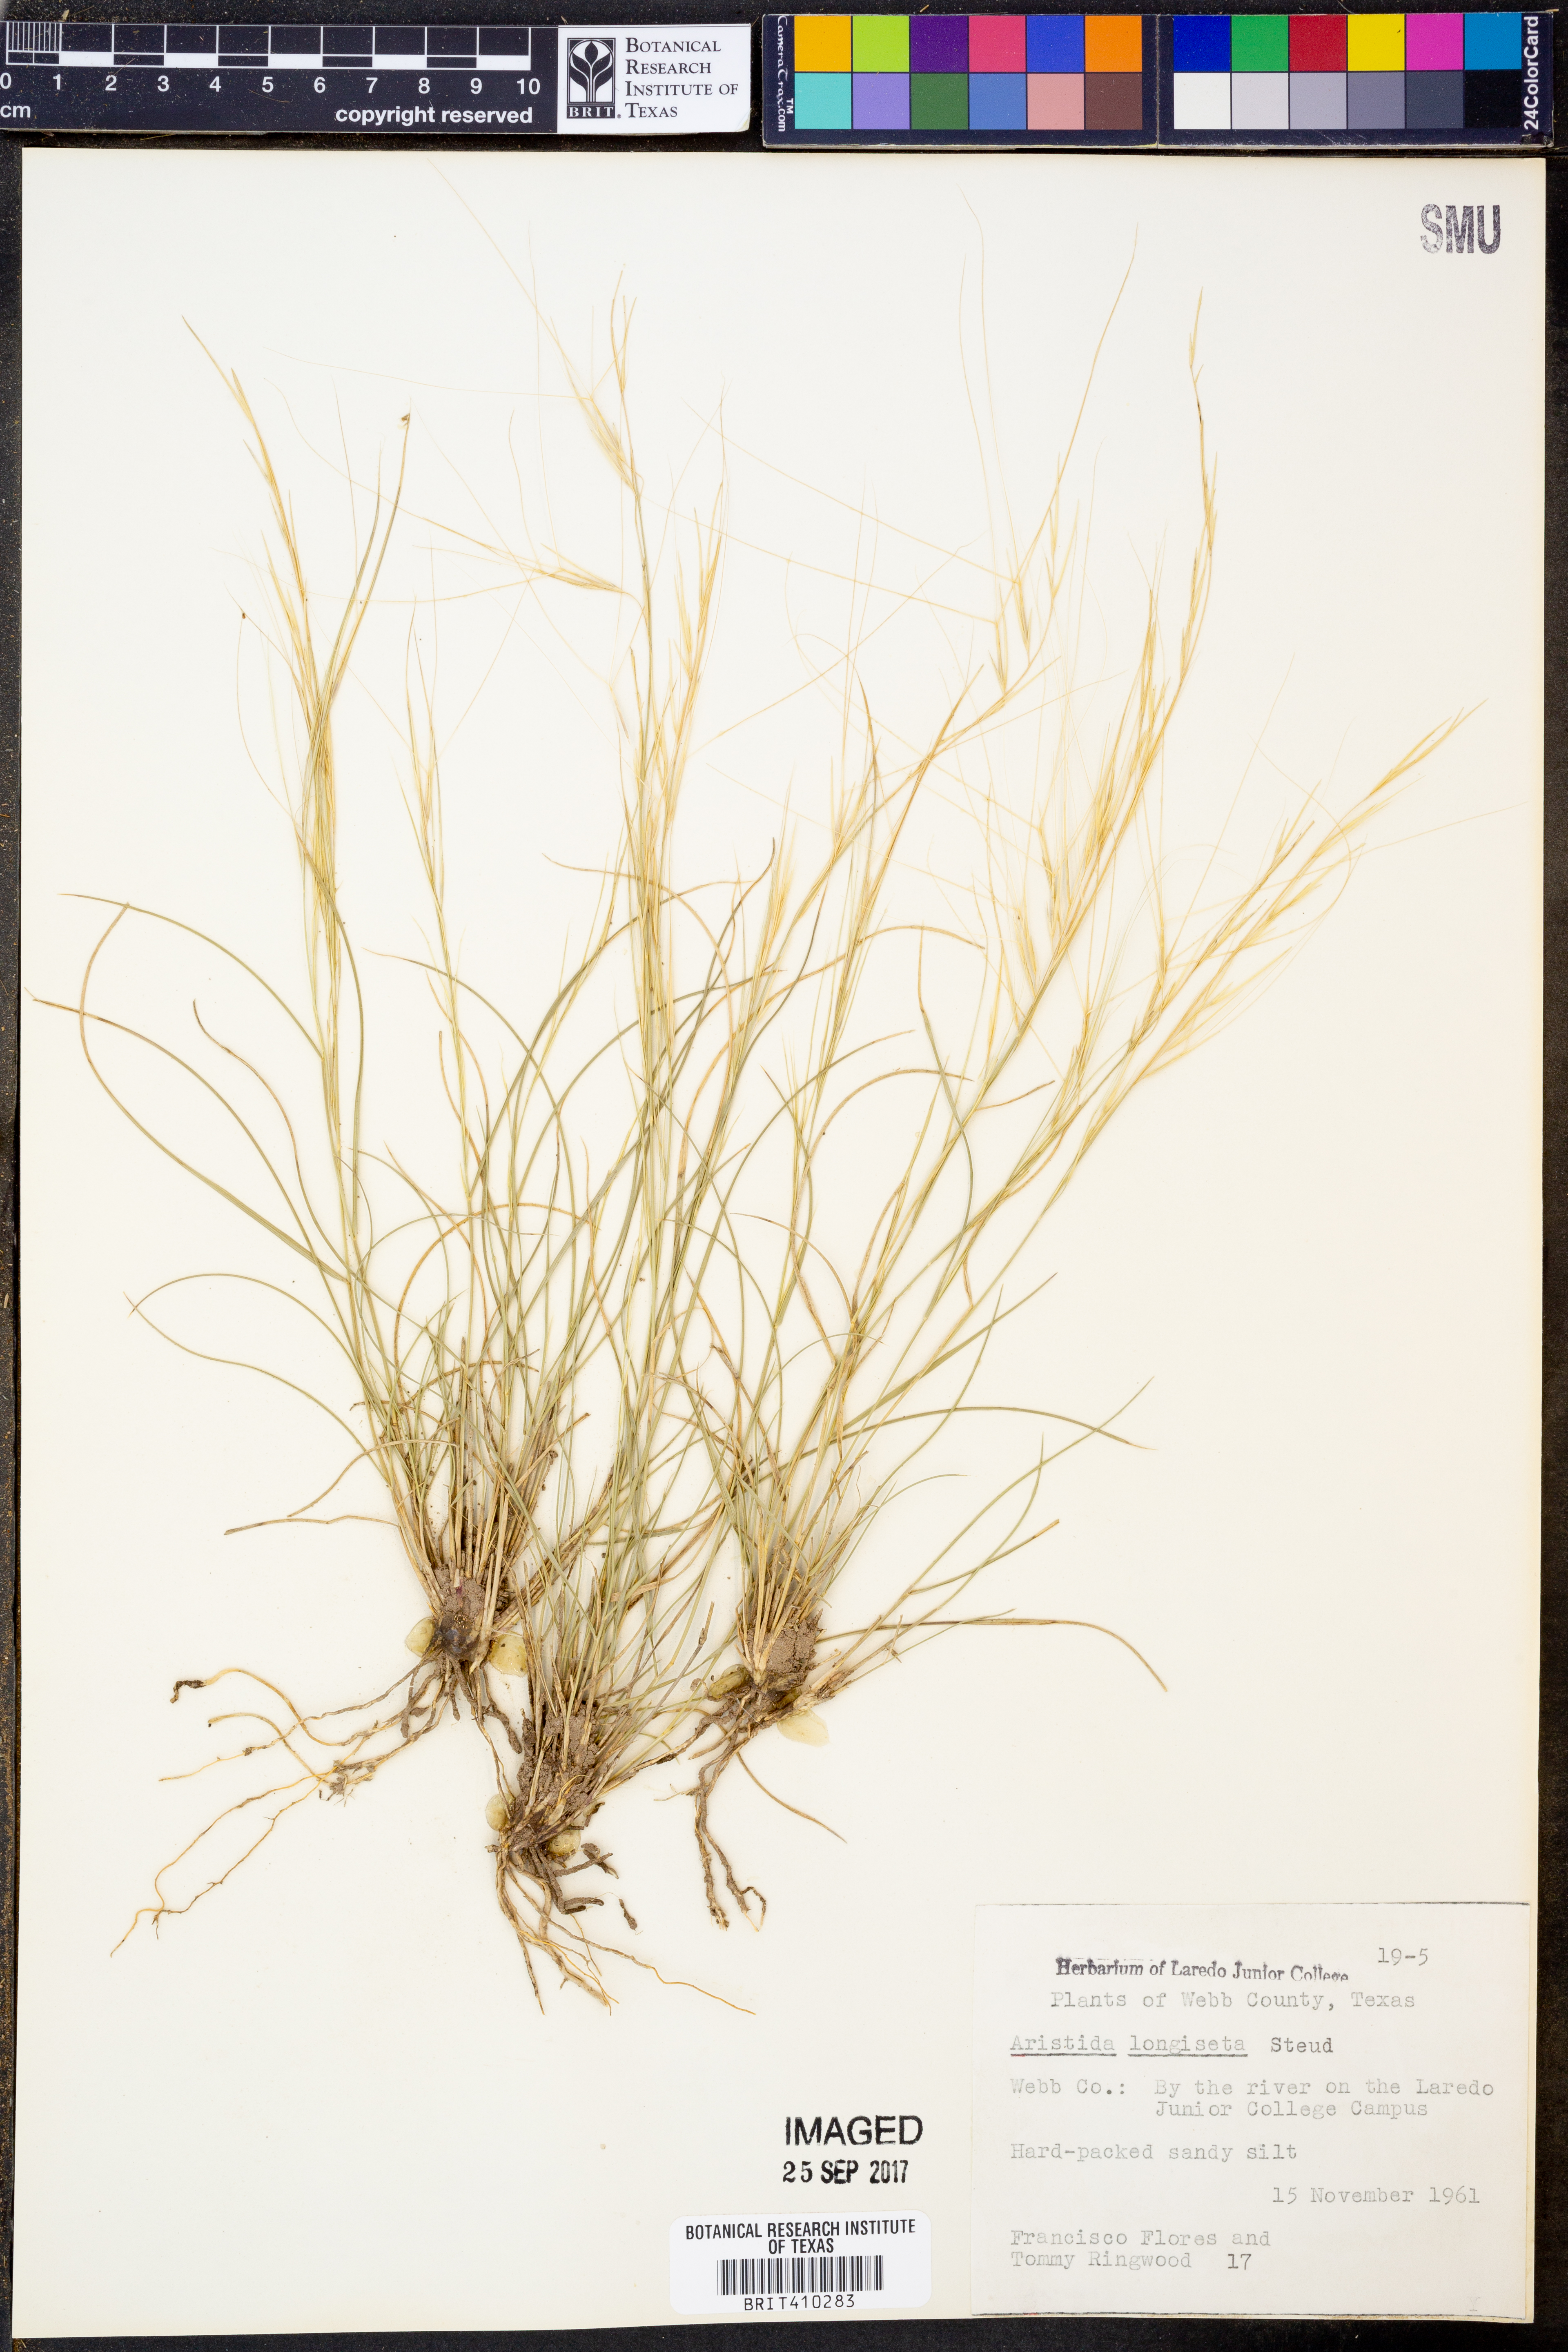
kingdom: Plantae
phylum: Tracheophyta
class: Liliopsida
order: Poales
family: Poaceae
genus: Aristida
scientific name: Aristida longiseta
